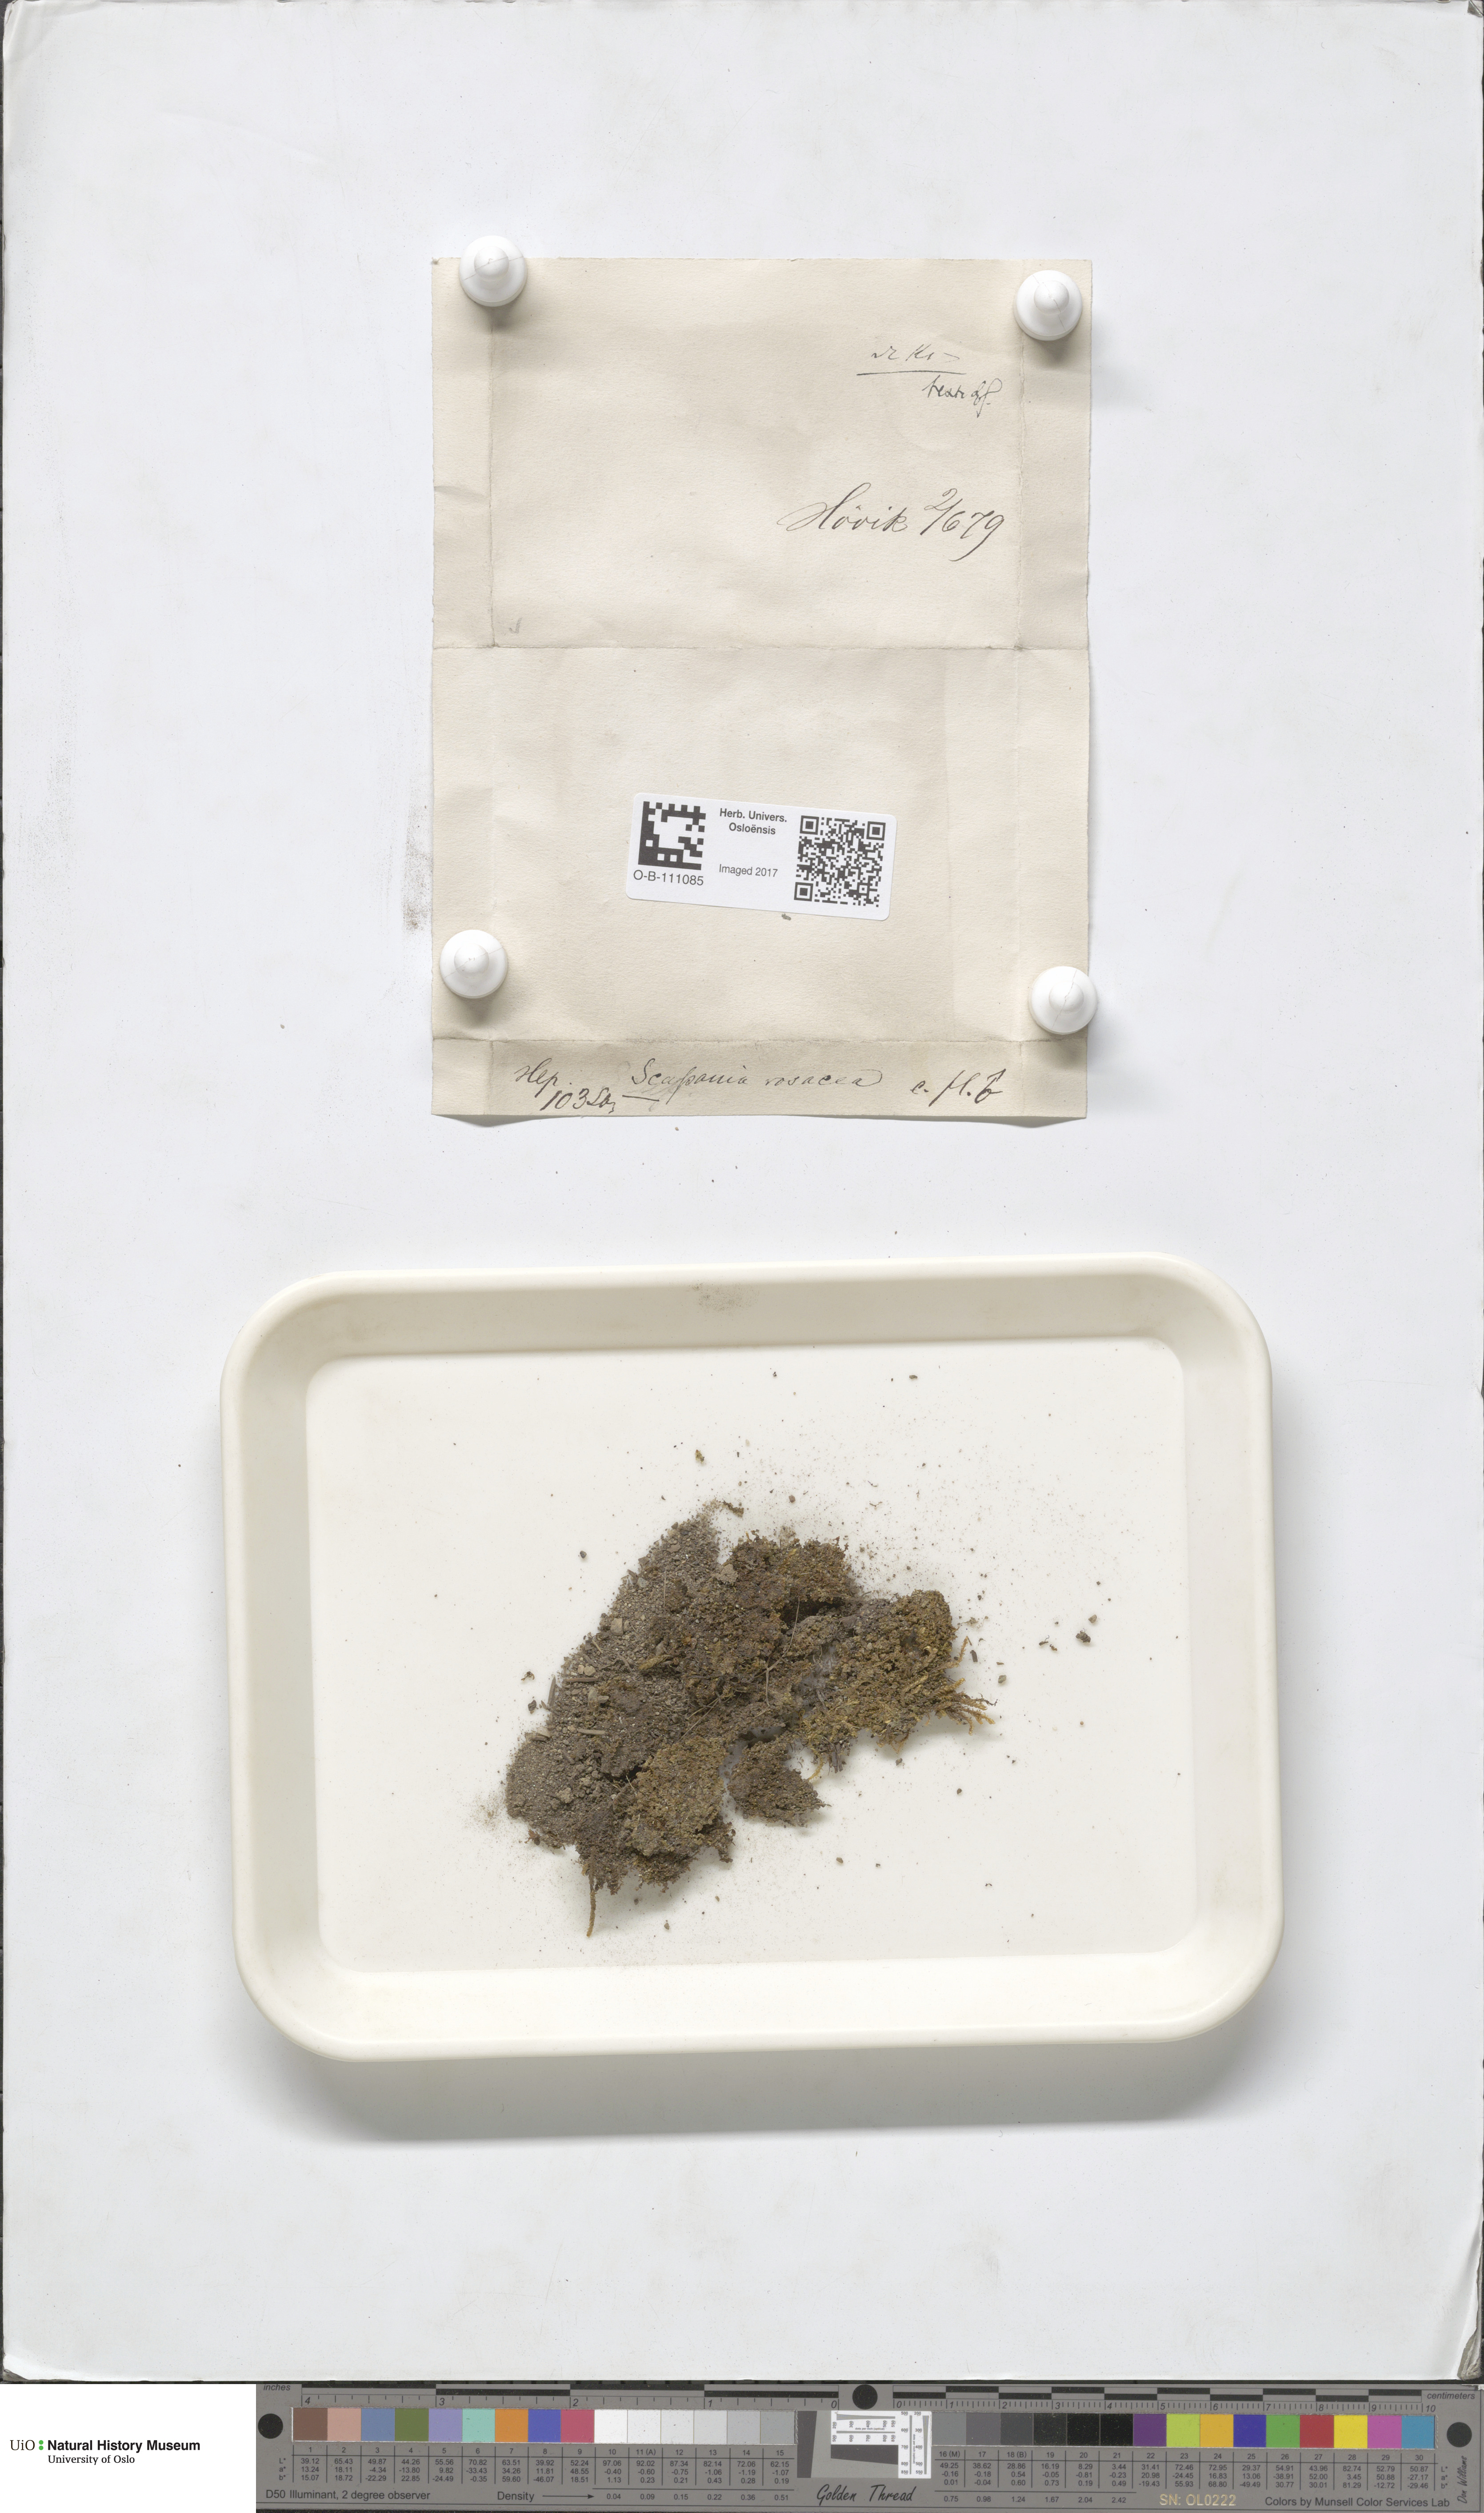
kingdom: Plantae
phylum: Marchantiophyta
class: Jungermanniopsida
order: Jungermanniales
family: Scapaniaceae
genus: Scapania
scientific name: Scapania curta
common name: Least earwort
